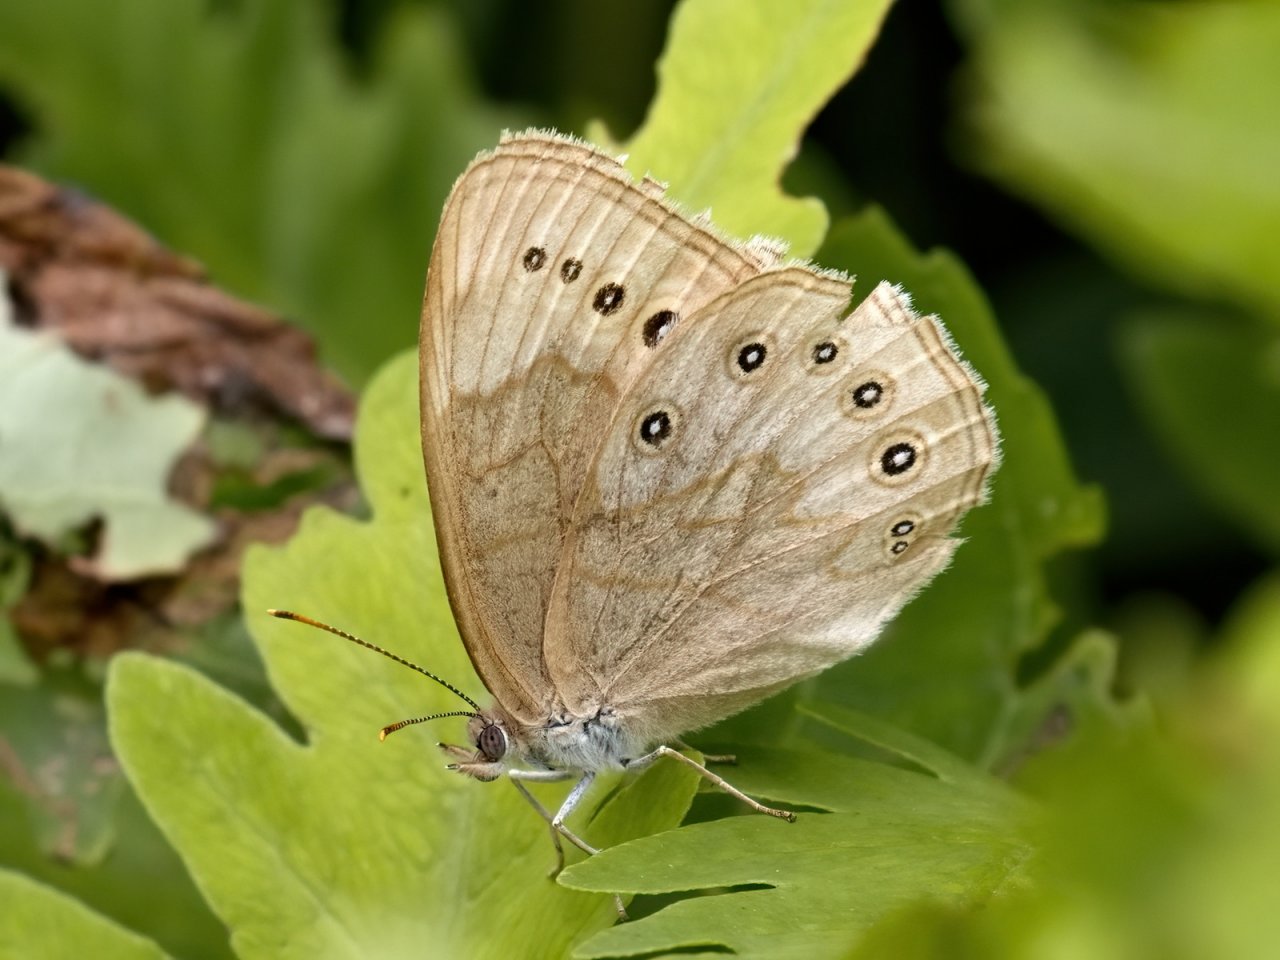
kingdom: Animalia
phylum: Arthropoda
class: Insecta
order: Lepidoptera
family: Nymphalidae
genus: Lethe
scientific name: Lethe eurydice
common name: Eyed Brown
